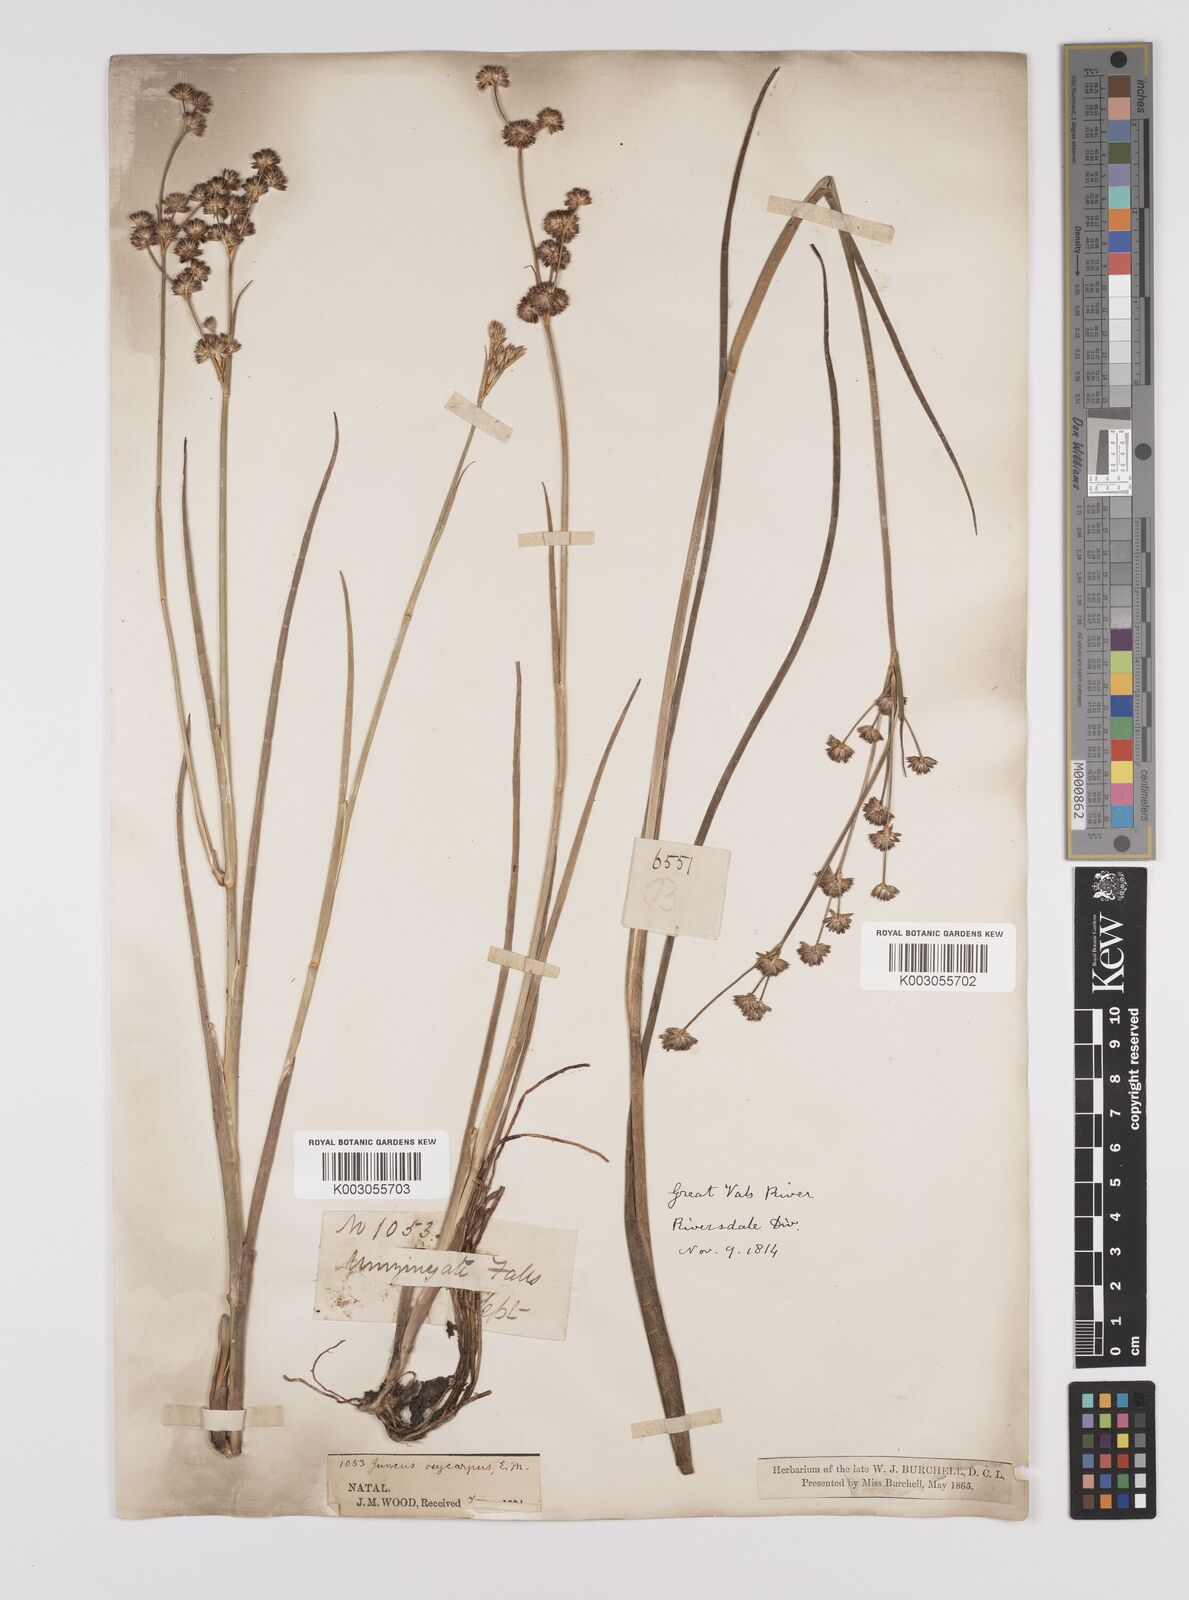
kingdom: Plantae
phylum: Tracheophyta
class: Liliopsida
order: Poales
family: Juncaceae
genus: Juncus
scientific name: Juncus oxycarpus
